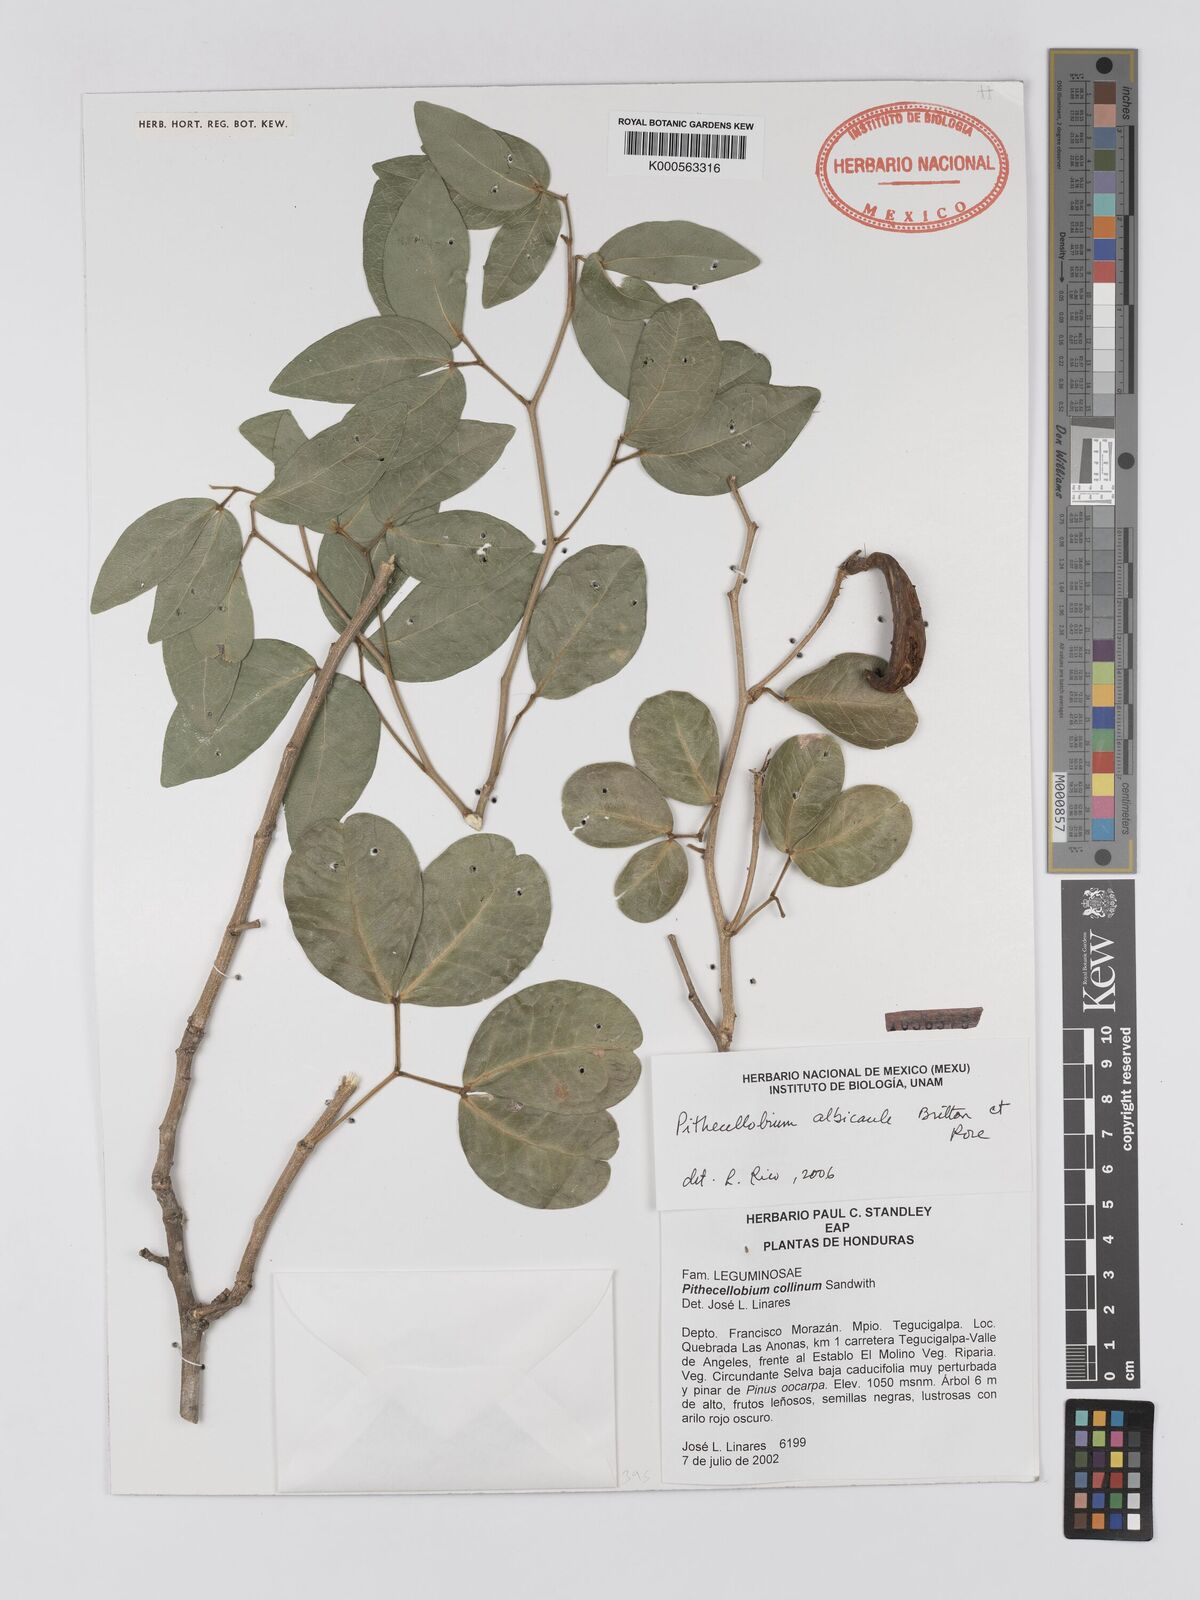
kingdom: Plantae
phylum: Tracheophyta
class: Magnoliopsida
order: Fabales
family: Fabaceae
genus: Pithecellobium
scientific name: Pithecellobium lanceolatum
